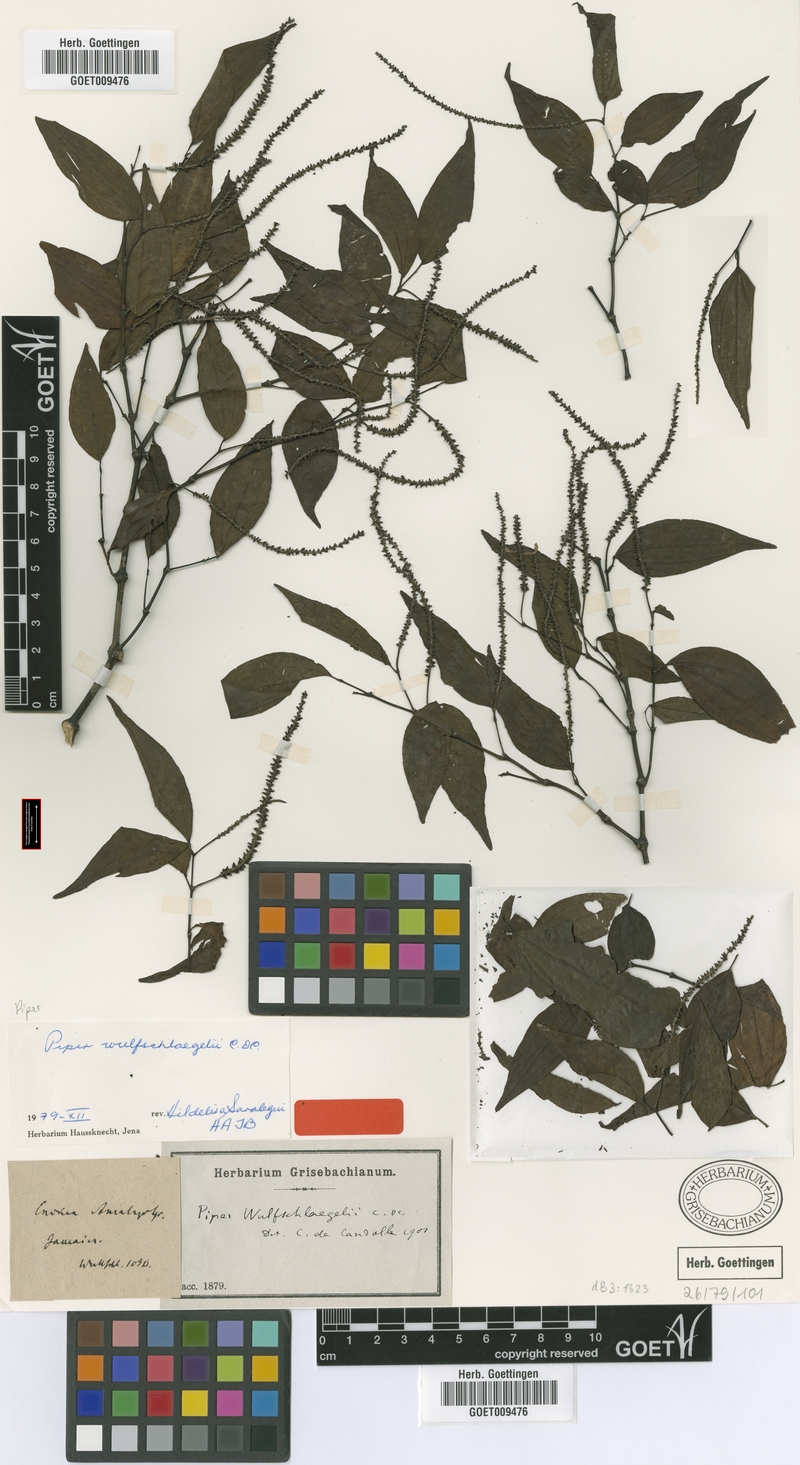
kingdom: Plantae
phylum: Tracheophyta
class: Magnoliopsida
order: Piperales
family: Piperaceae
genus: Piper
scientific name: Piper amalago
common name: Pepper-elder
